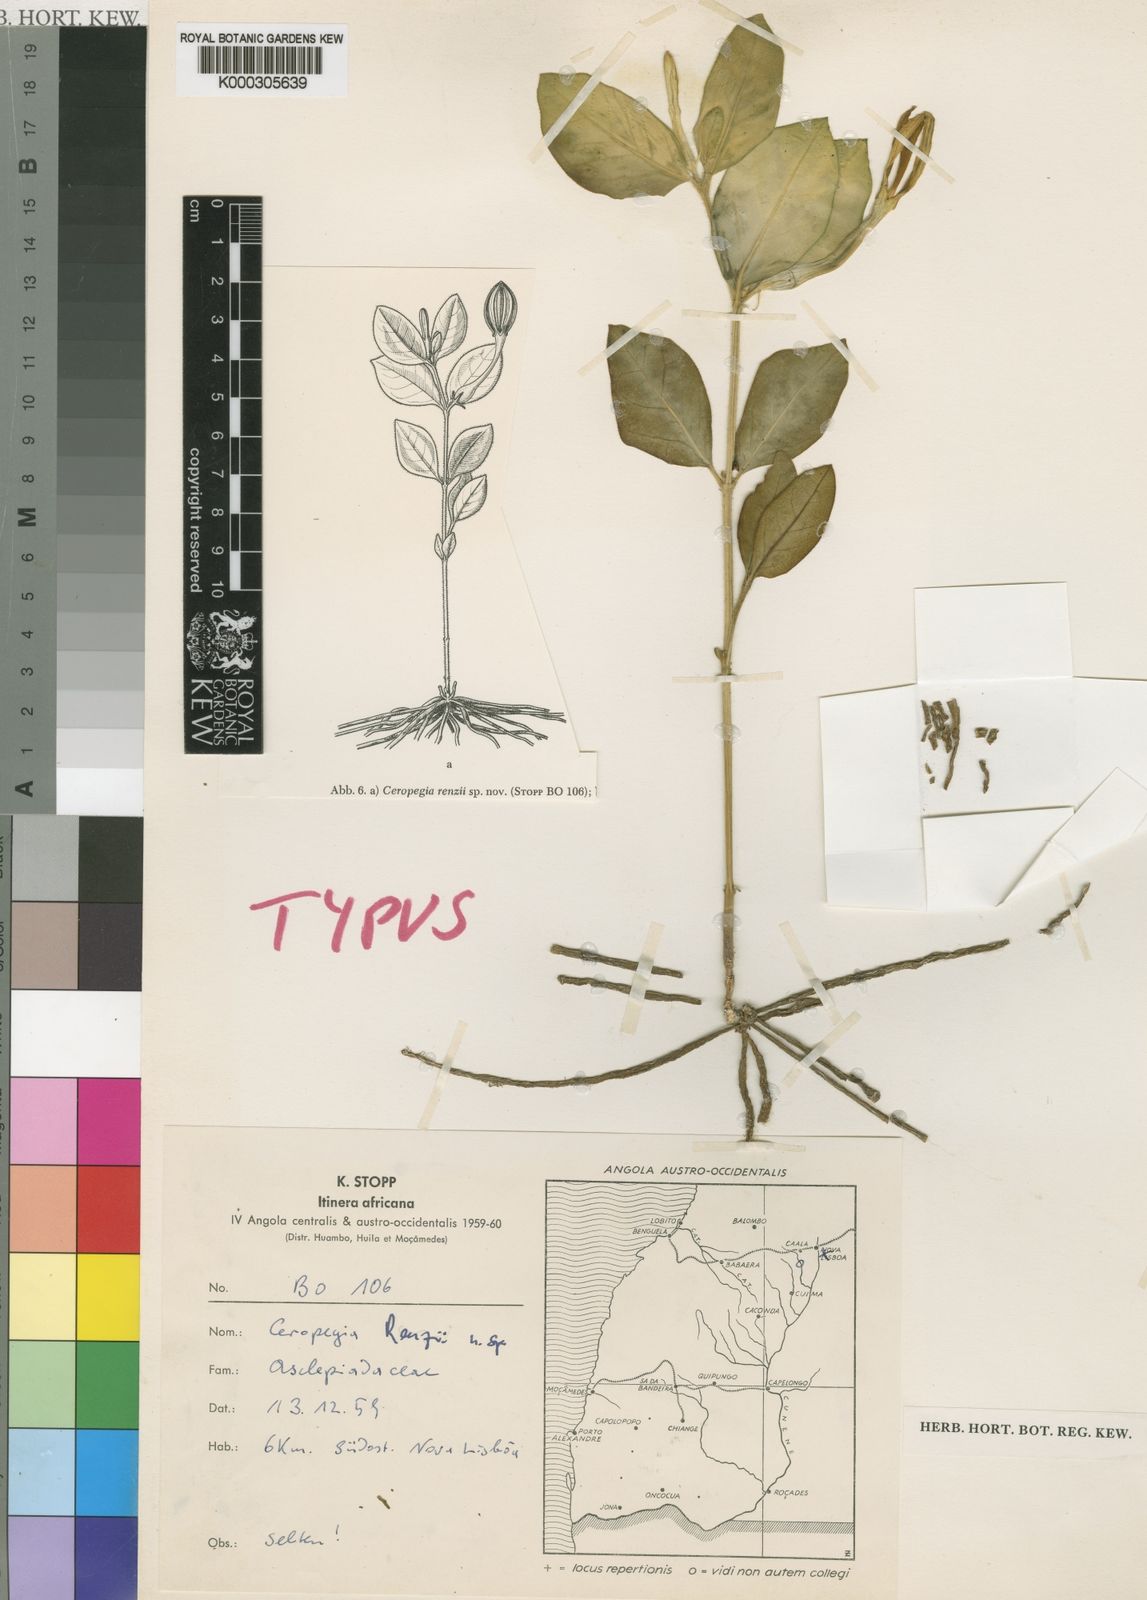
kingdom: Plantae
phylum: Tracheophyta
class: Magnoliopsida
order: Gentianales
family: Apocynaceae
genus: Ceropegia
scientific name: Ceropegia filipendula
